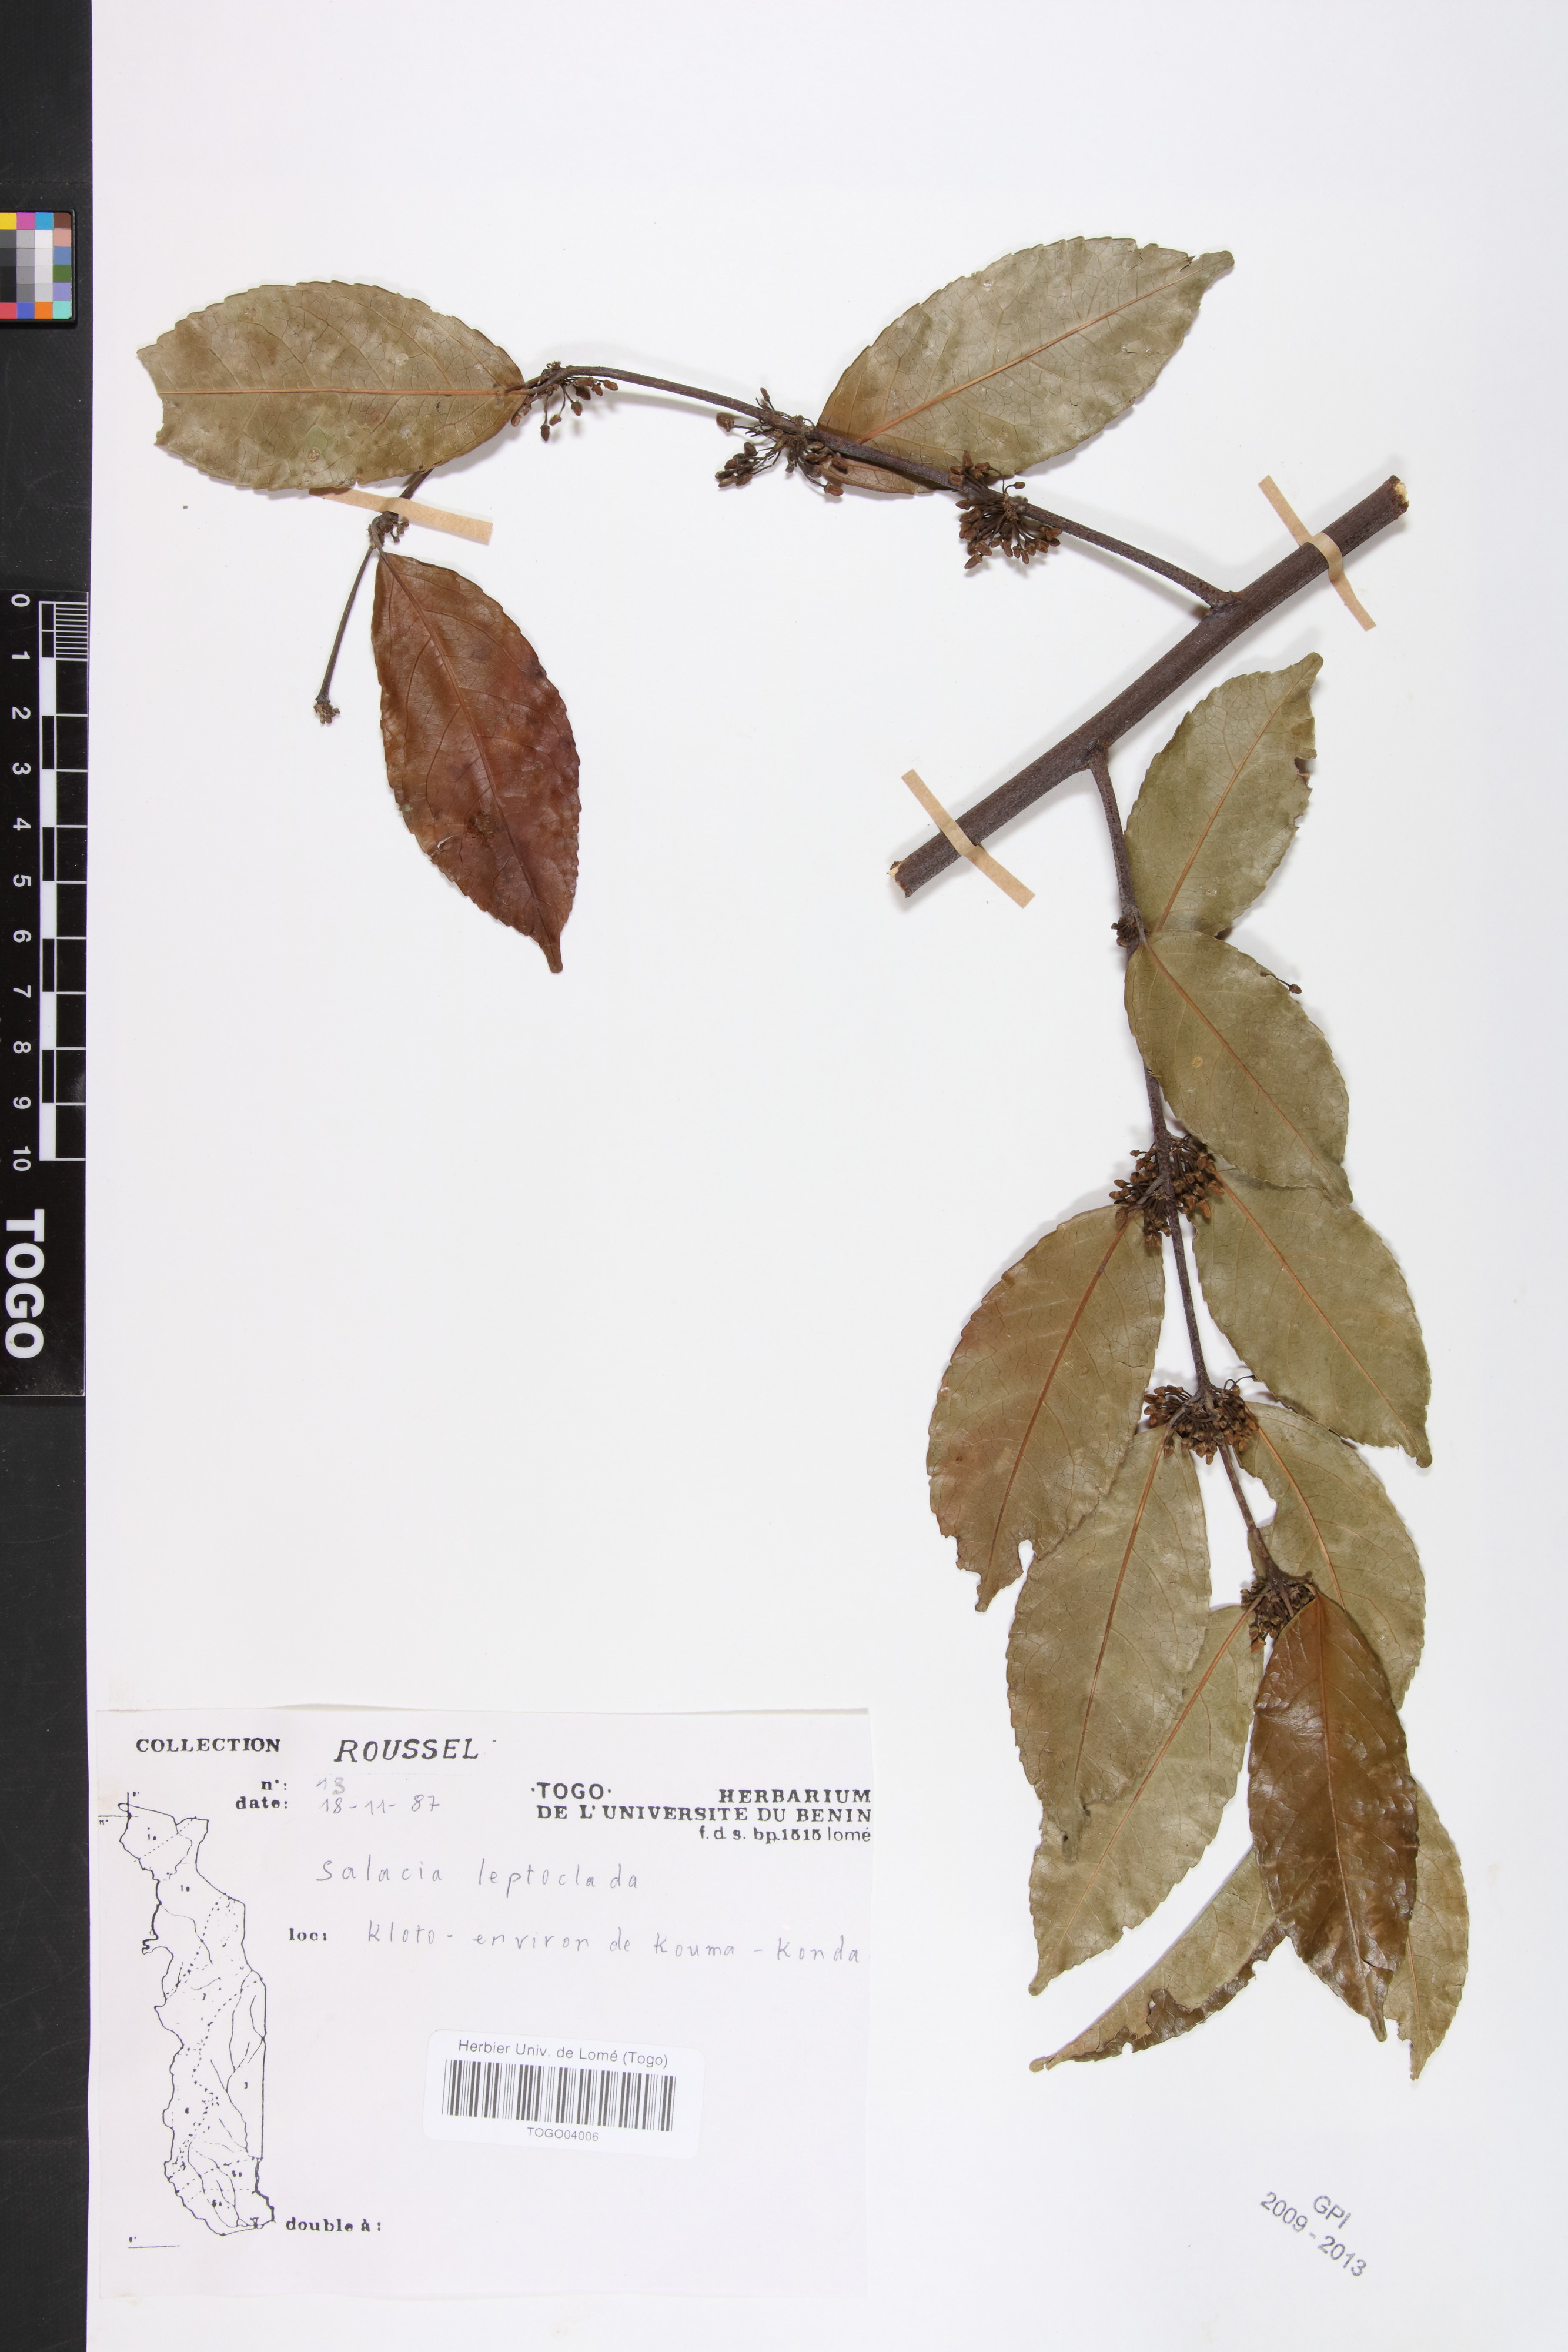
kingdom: Plantae
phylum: Tracheophyta
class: Magnoliopsida
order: Celastrales
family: Celastraceae
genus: Salacia
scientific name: Salacia leptoclada
